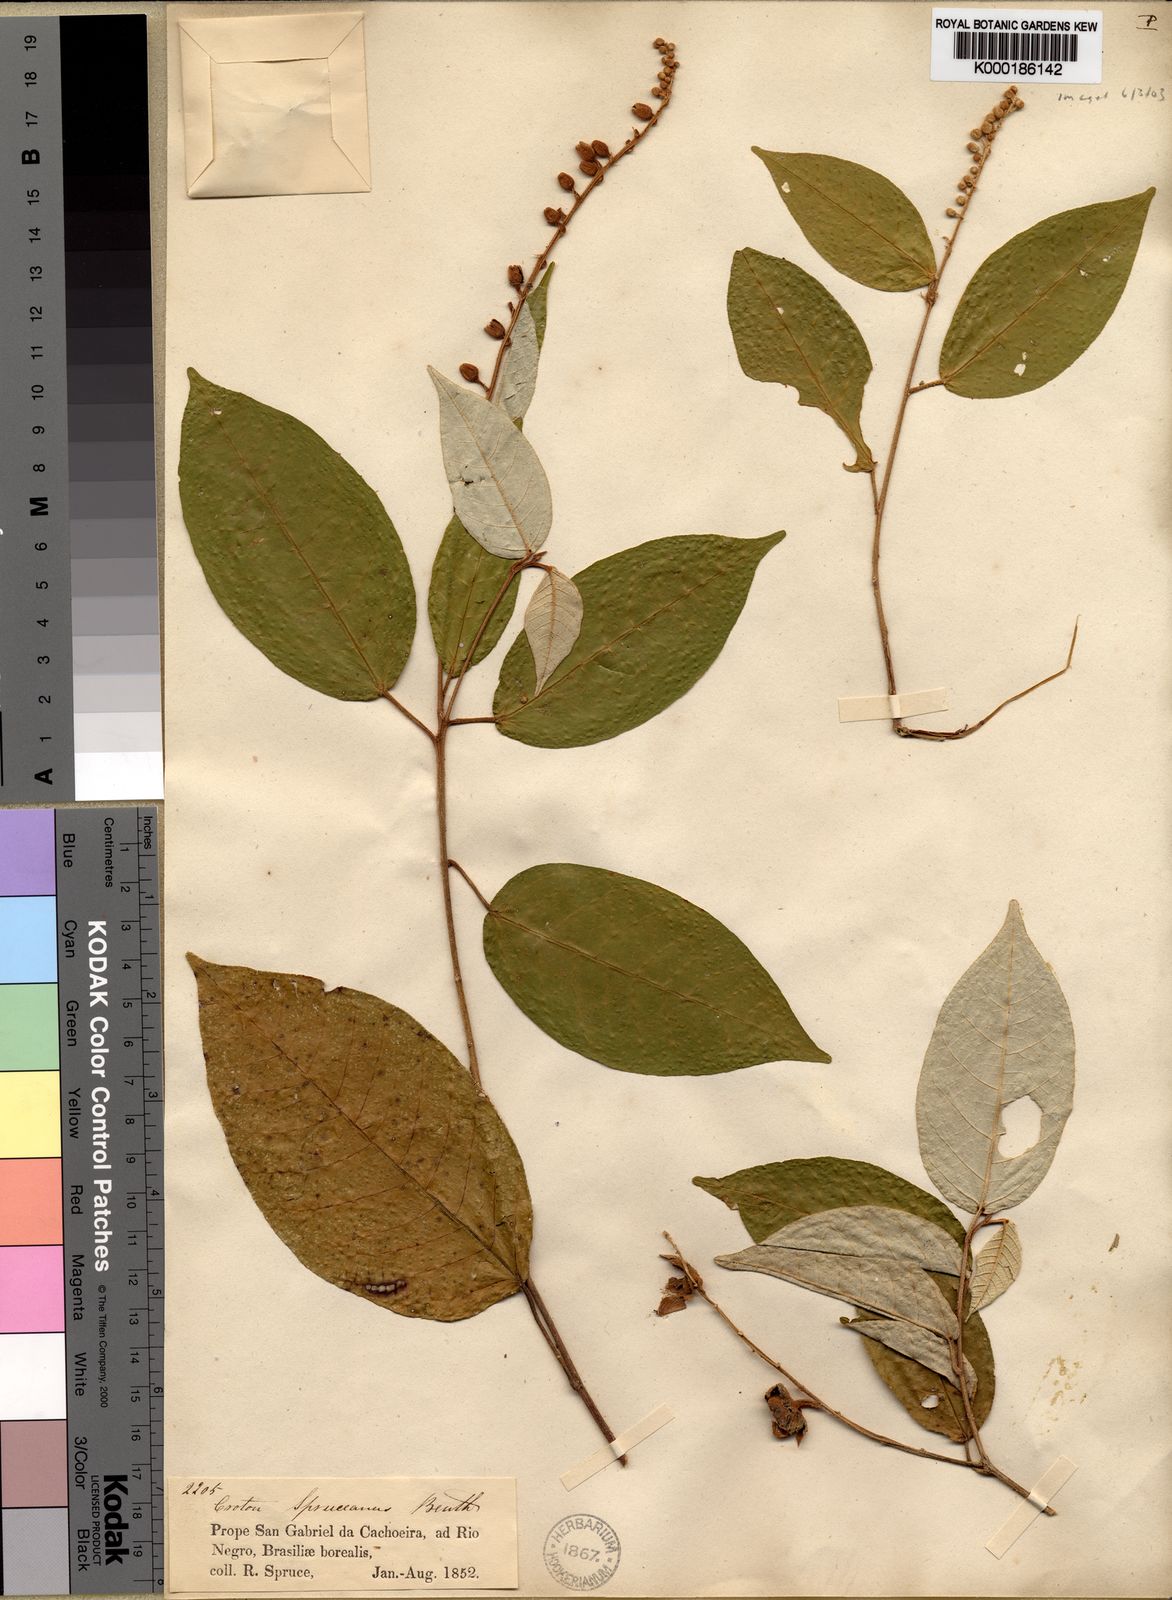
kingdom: Plantae
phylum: Tracheophyta
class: Magnoliopsida
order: Malpighiales
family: Euphorbiaceae
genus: Croton
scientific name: Croton spruceanus
